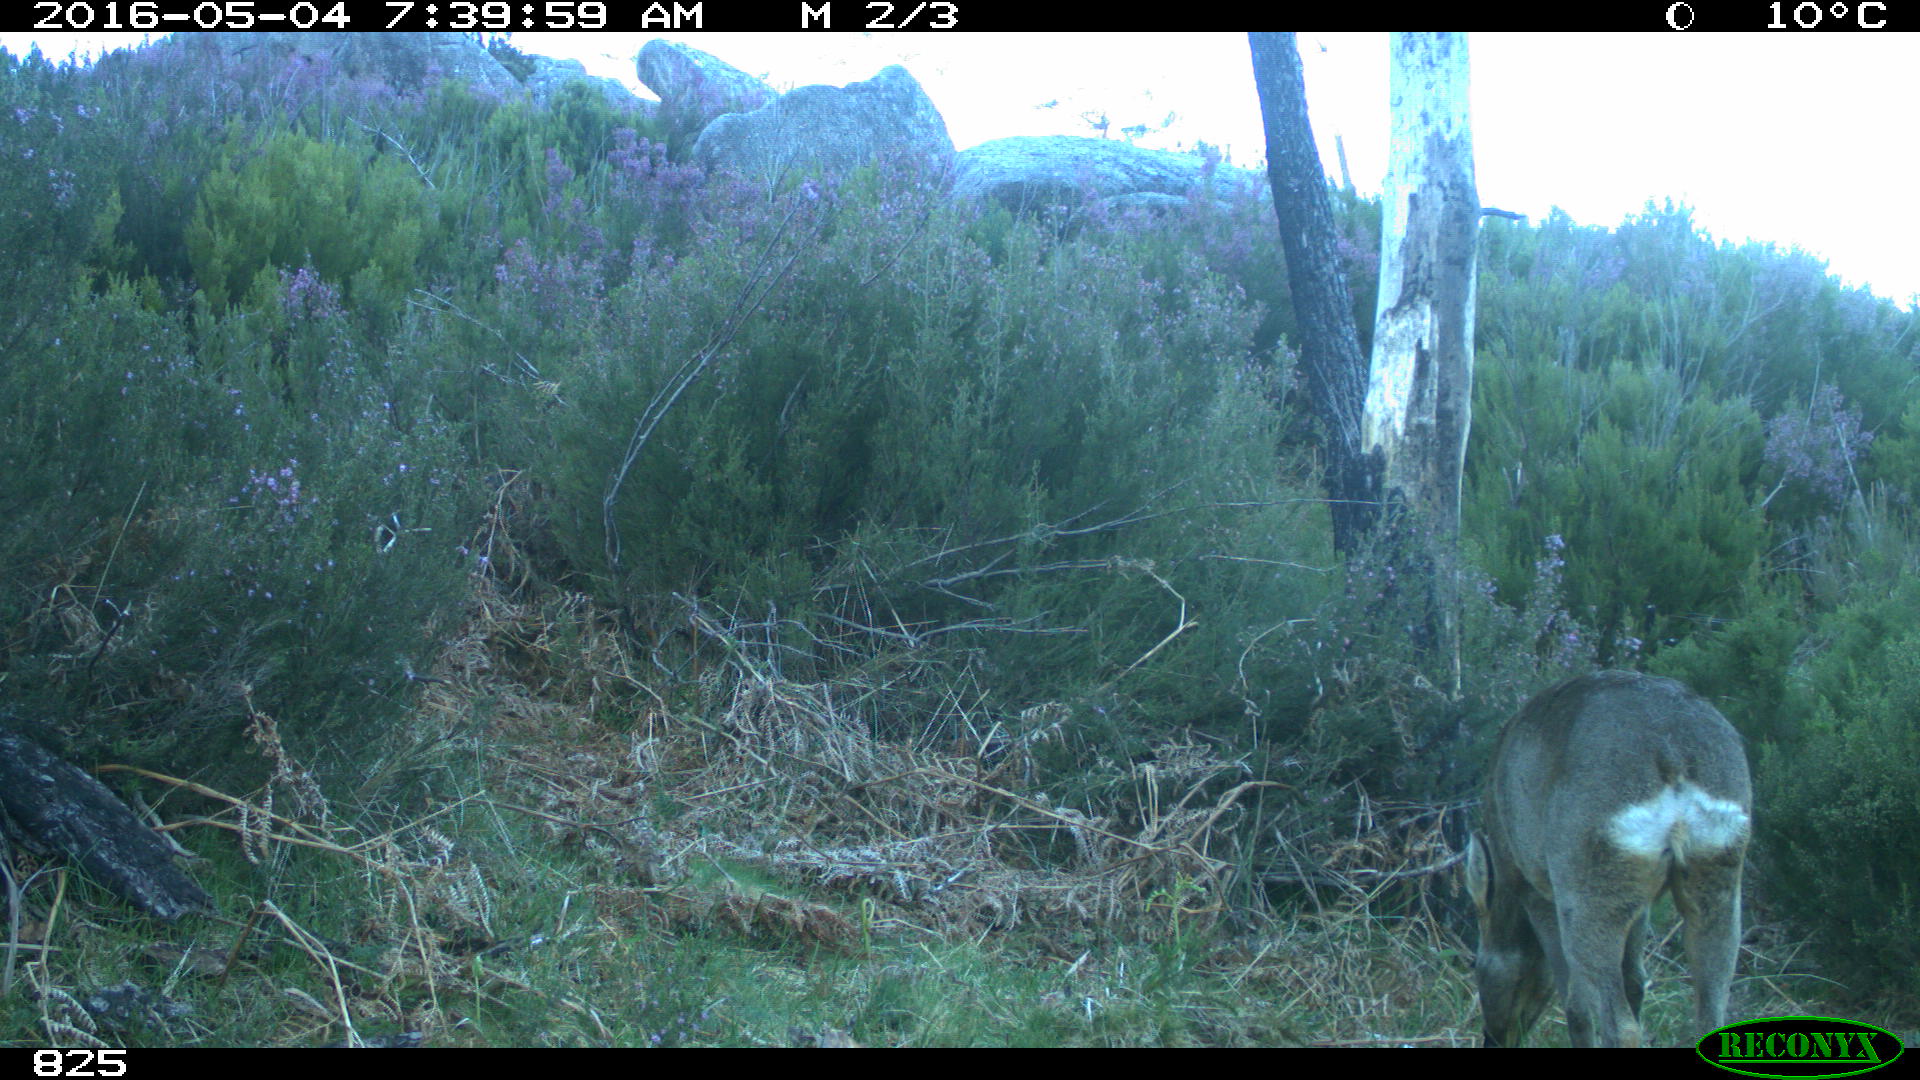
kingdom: Animalia
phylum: Chordata
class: Mammalia
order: Artiodactyla
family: Cervidae
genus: Capreolus
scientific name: Capreolus capreolus
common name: Western roe deer
